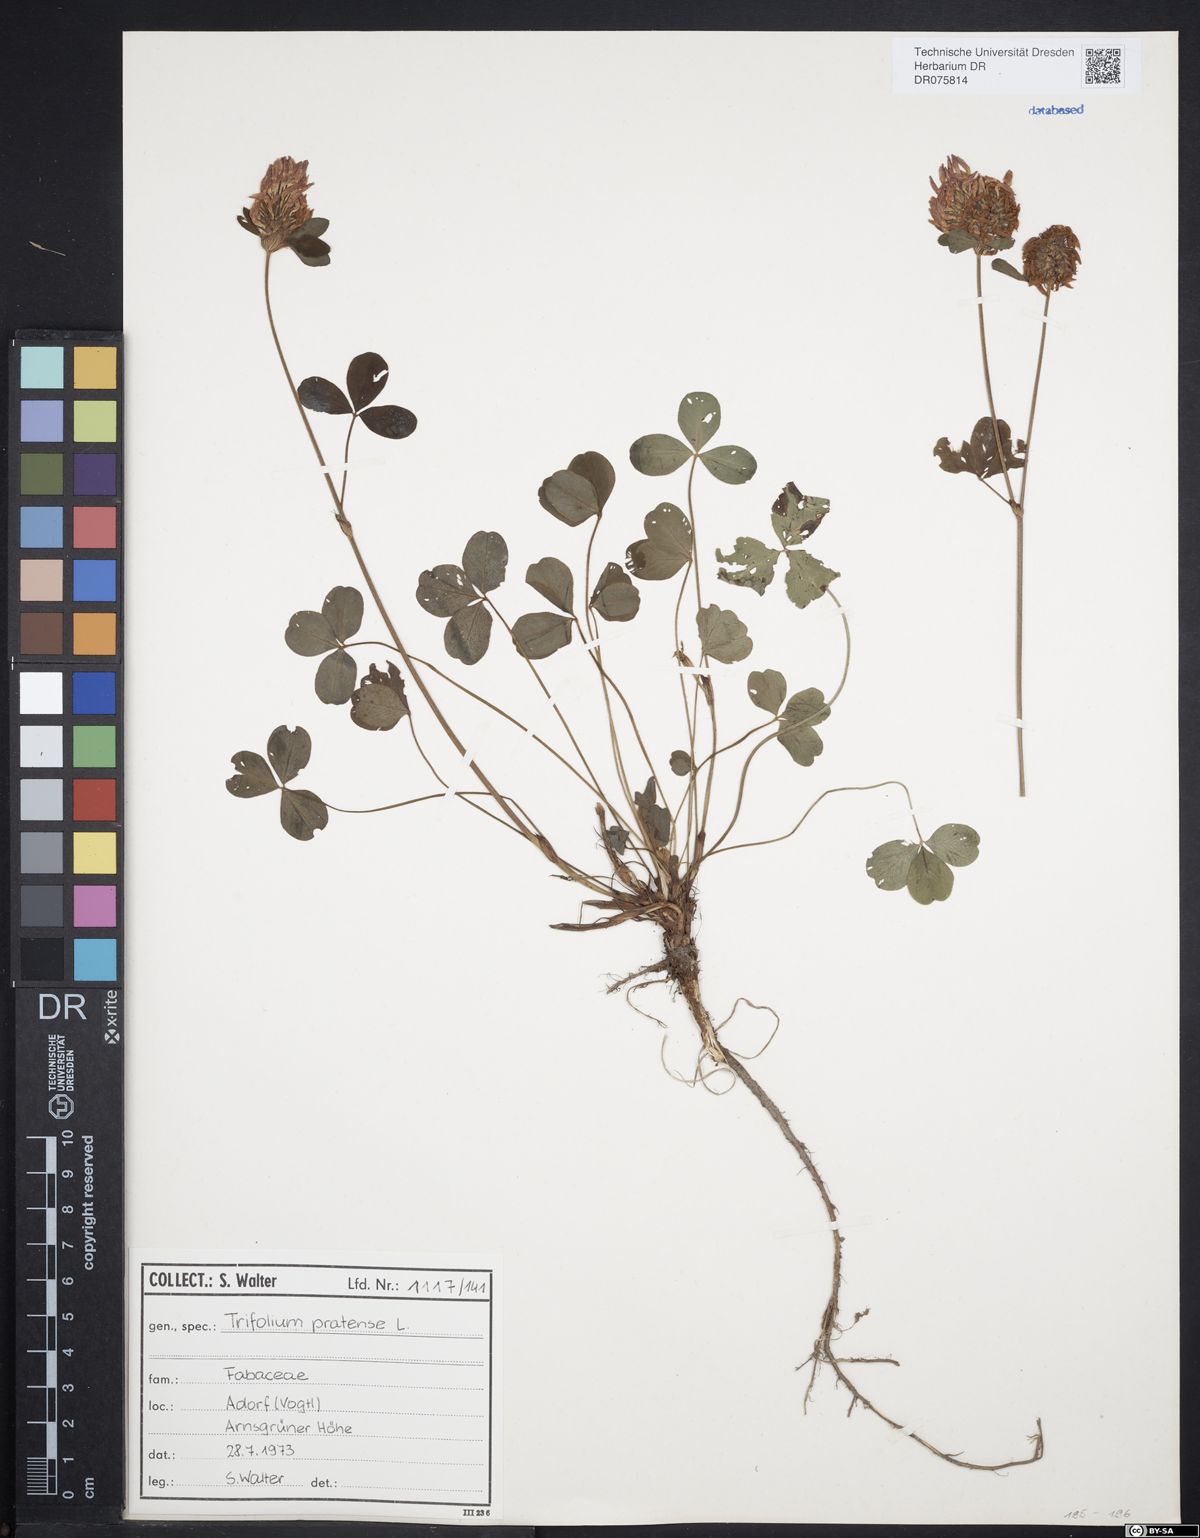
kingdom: Plantae
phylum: Tracheophyta
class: Magnoliopsida
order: Fabales
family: Fabaceae
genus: Trifolium
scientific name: Trifolium pratense
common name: Red clover
